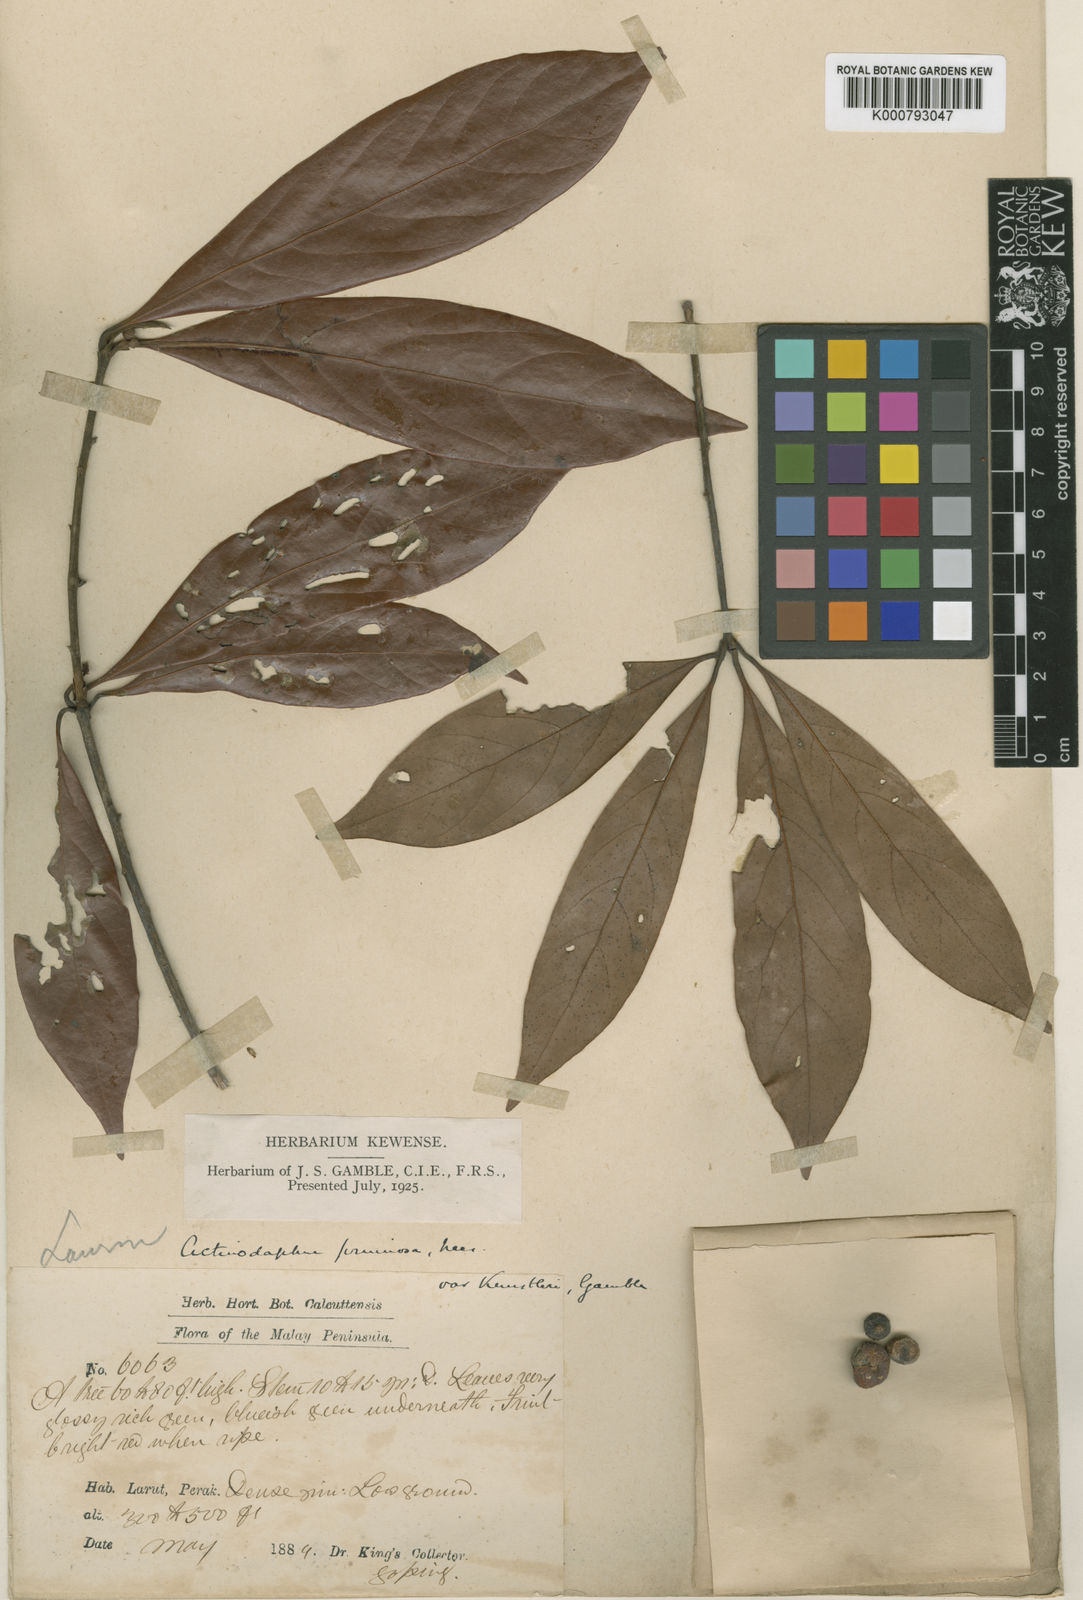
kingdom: Plantae
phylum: Tracheophyta
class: Magnoliopsida
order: Laurales
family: Lauraceae
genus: Actinodaphne
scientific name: Actinodaphne pruinosa
